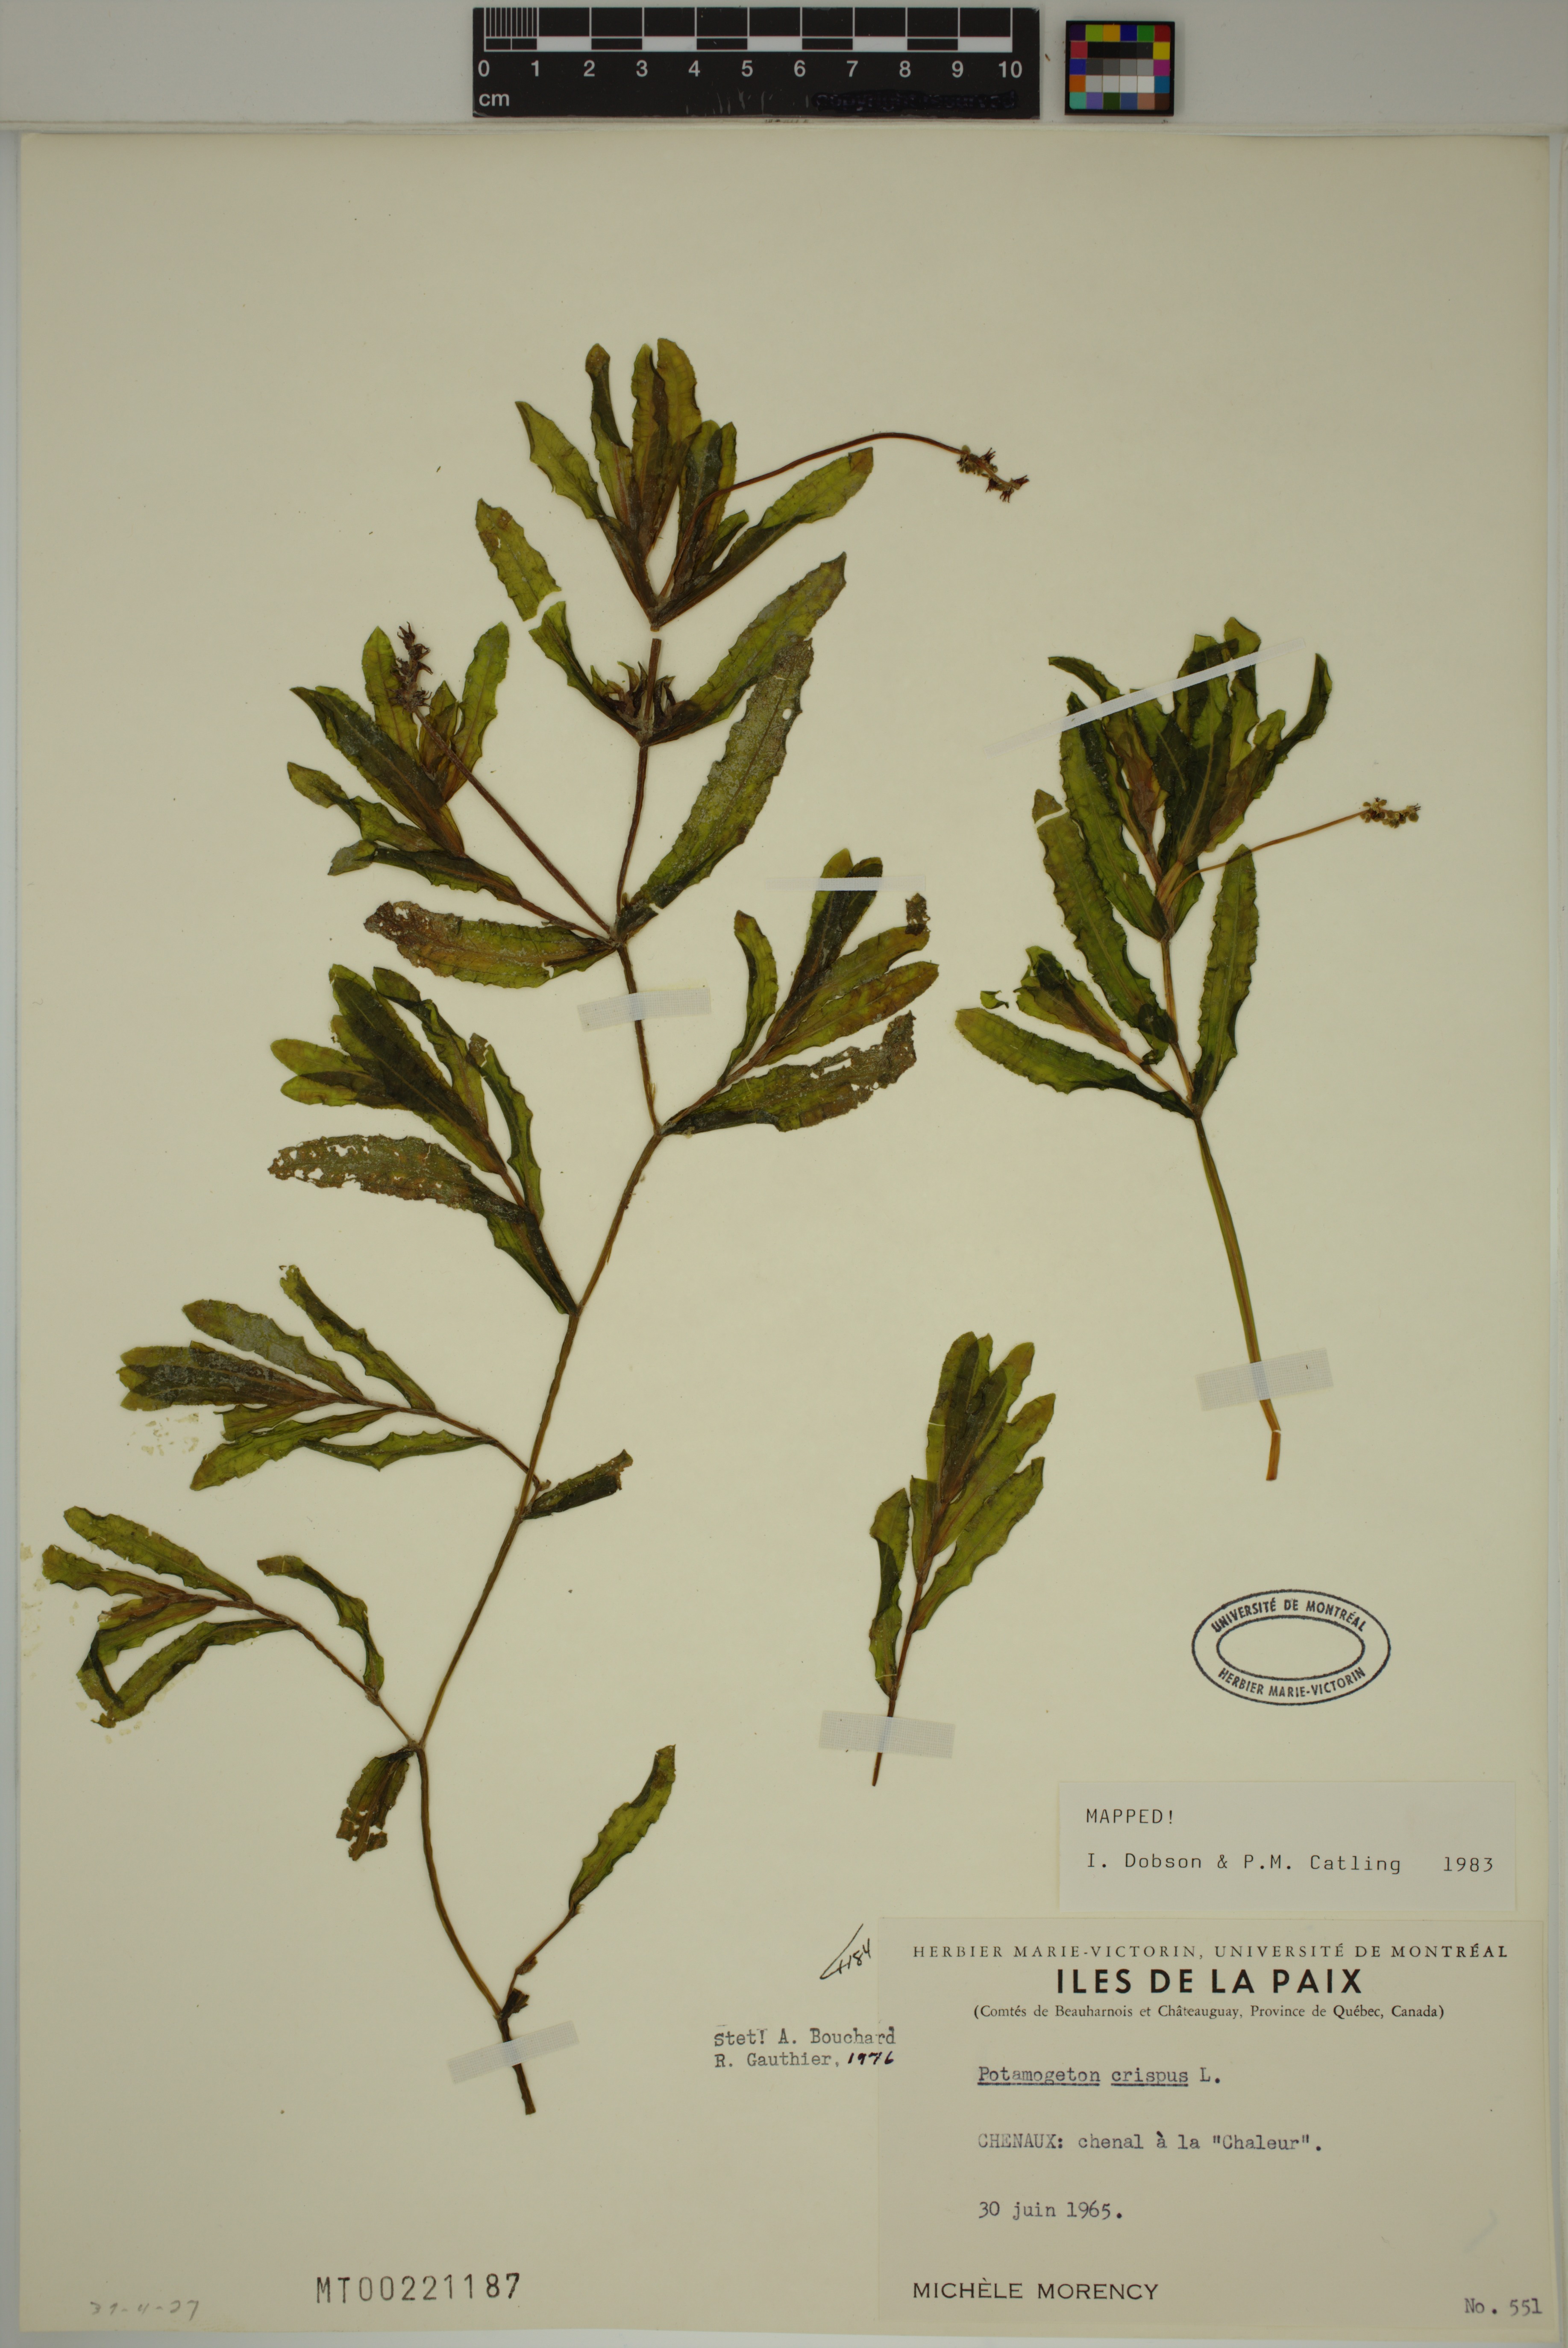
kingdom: Plantae
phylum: Tracheophyta
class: Liliopsida
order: Alismatales
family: Potamogetonaceae
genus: Potamogeton
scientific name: Potamogeton crispus
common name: Curled pondweed
